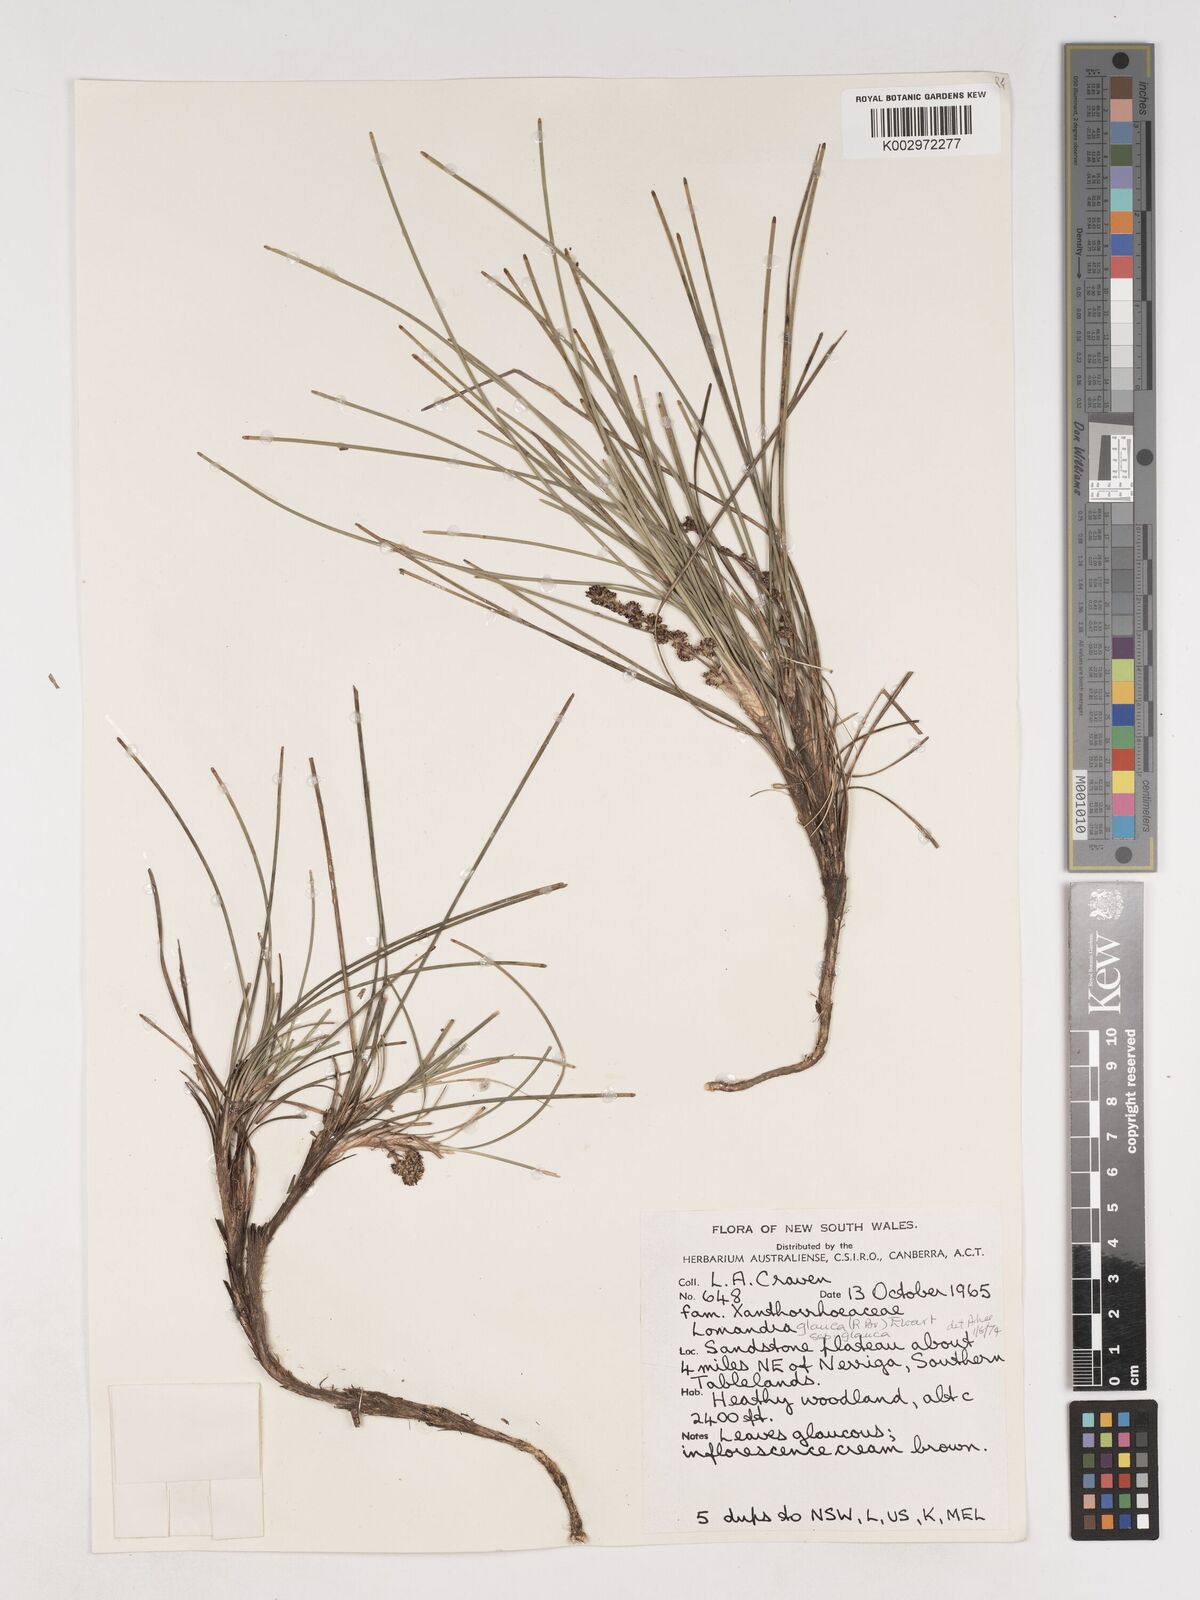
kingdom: Plantae
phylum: Tracheophyta
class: Liliopsida
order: Asparagales
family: Asparagaceae
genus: Lomandra
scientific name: Lomandra
